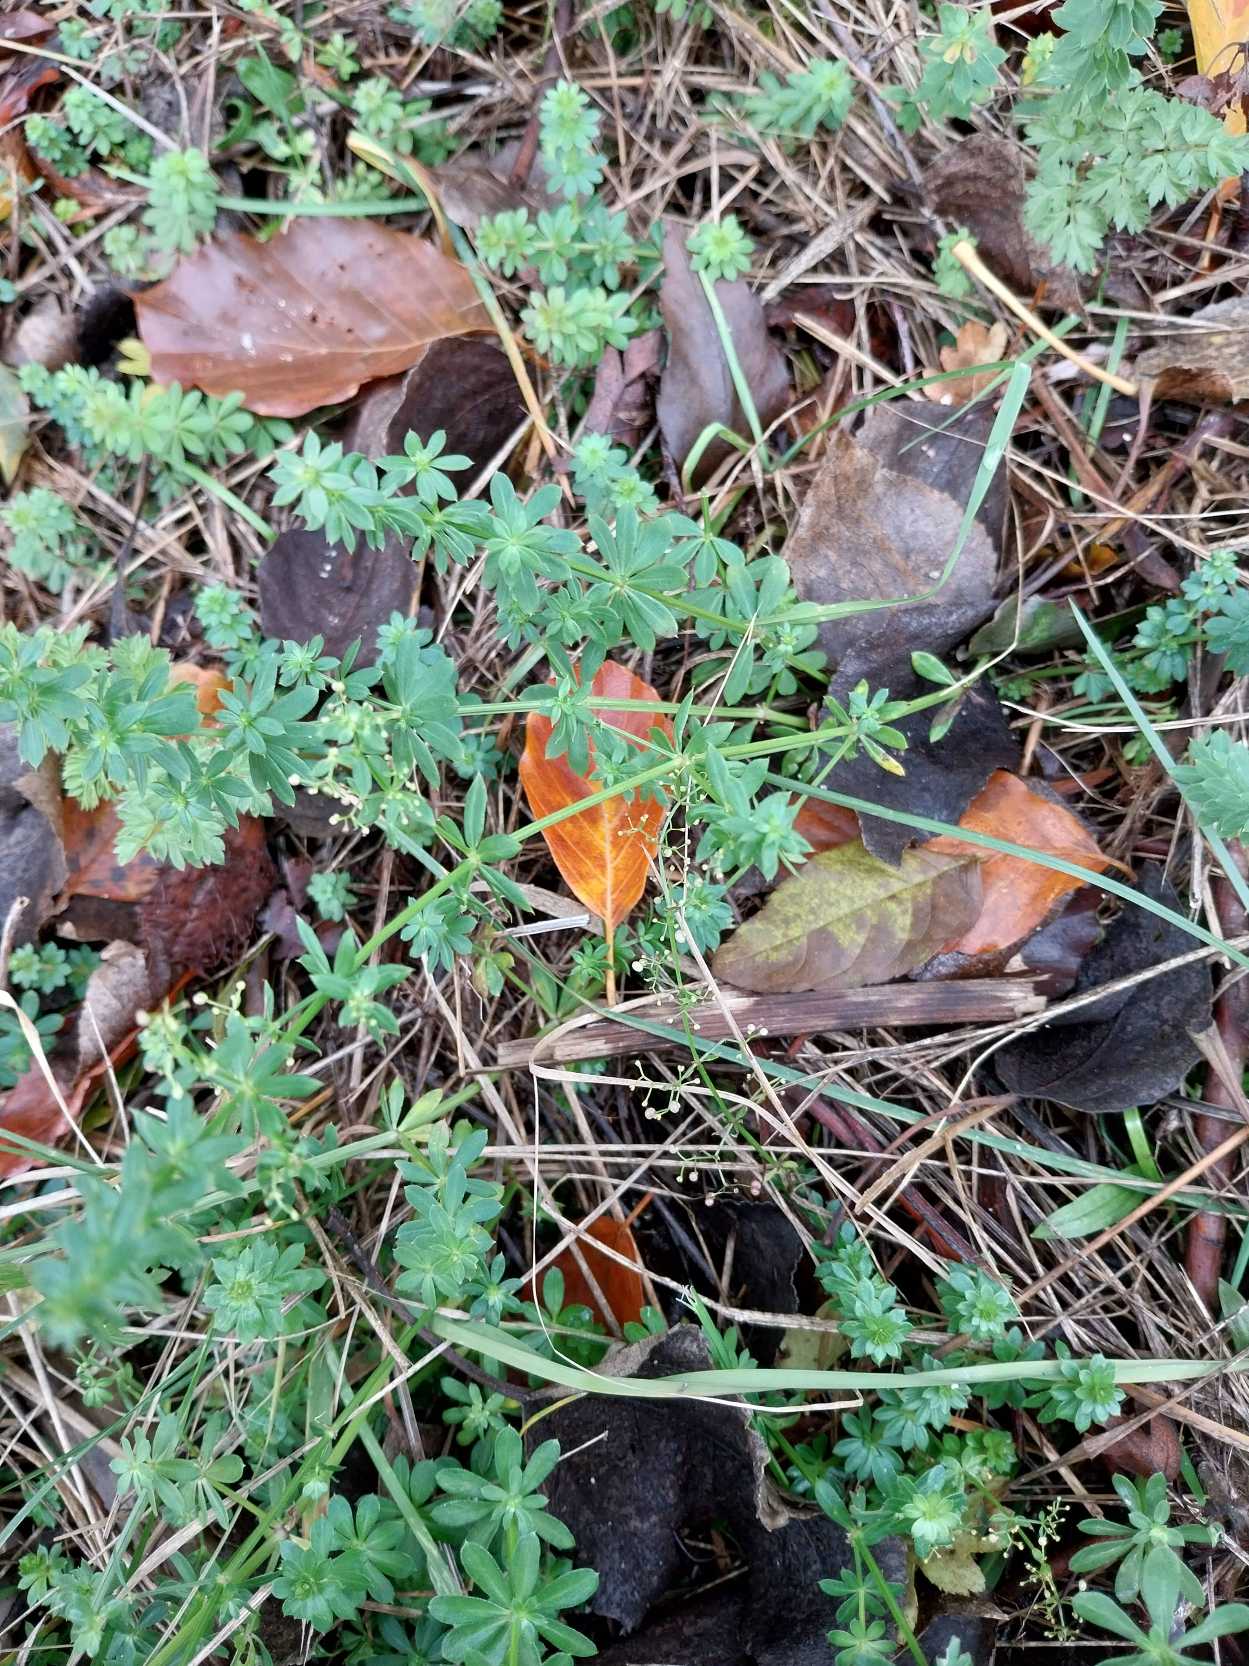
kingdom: Plantae
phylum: Tracheophyta
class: Magnoliopsida
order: Gentianales
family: Rubiaceae
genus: Galium
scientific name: Galium mollugo
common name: Hvid snerre
